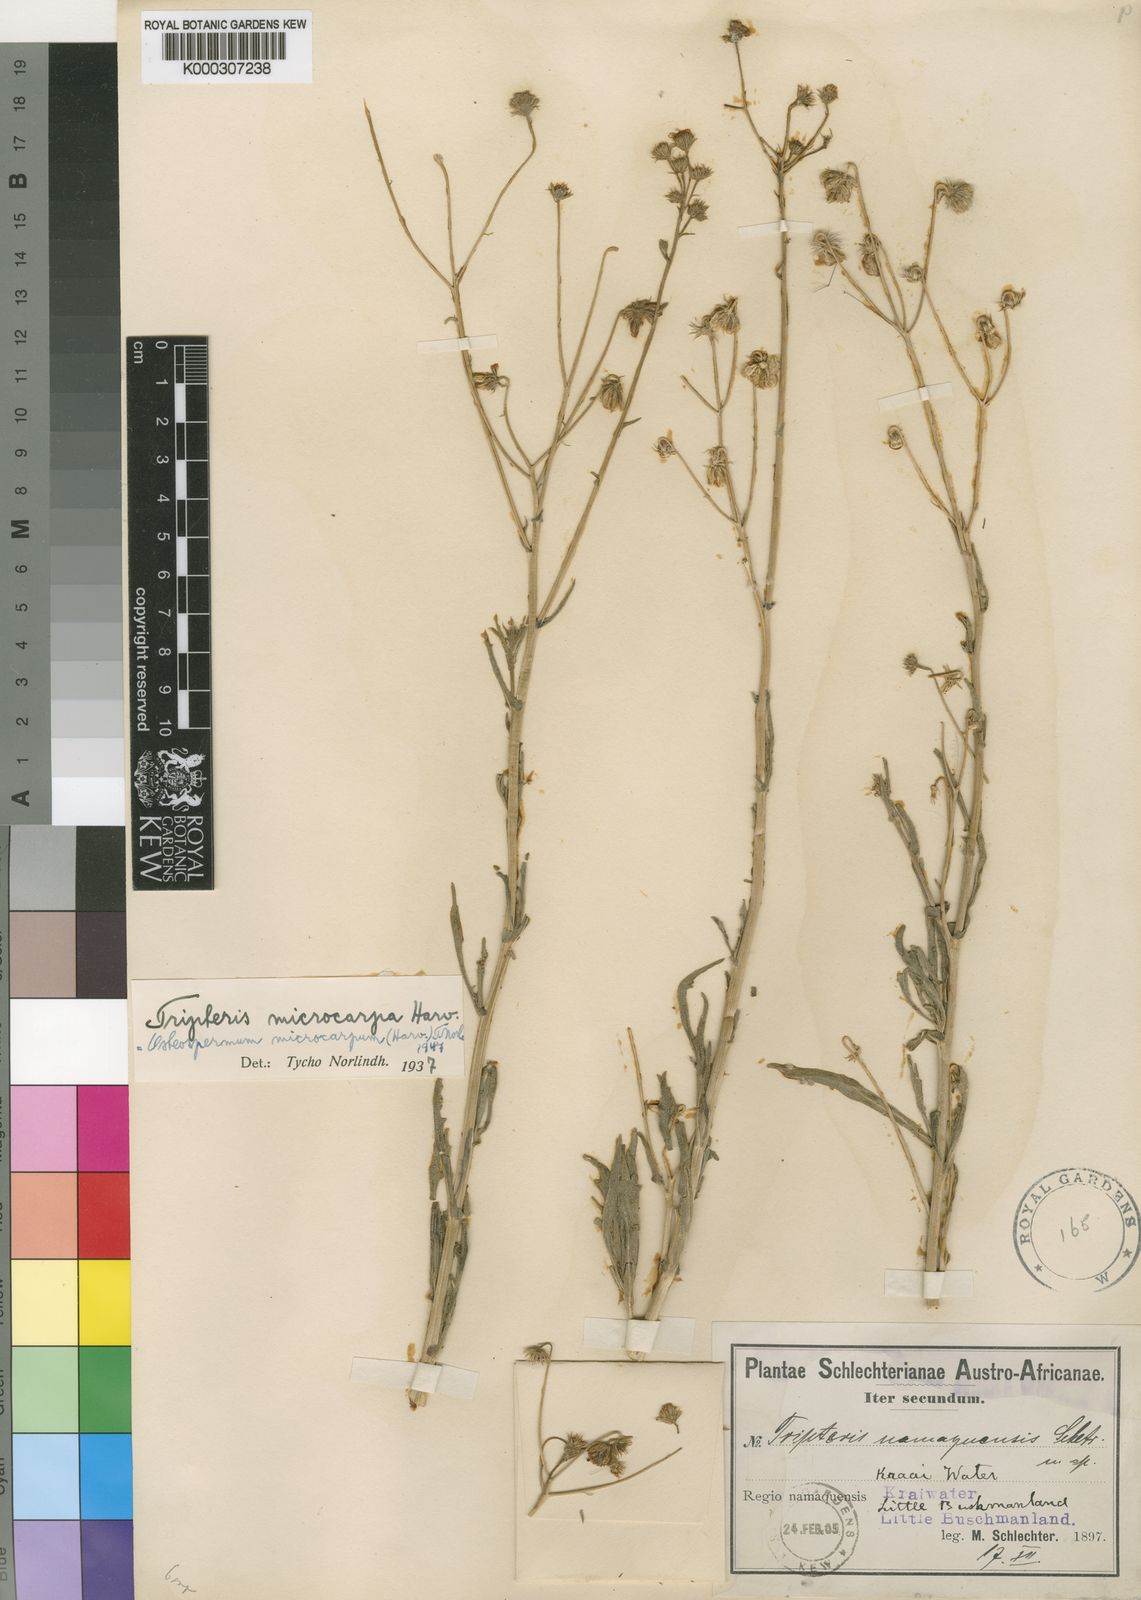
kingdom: Plantae
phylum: Tracheophyta
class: Magnoliopsida
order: Asterales
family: Asteraceae
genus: Osteospermum
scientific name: Osteospermum microcarpum
